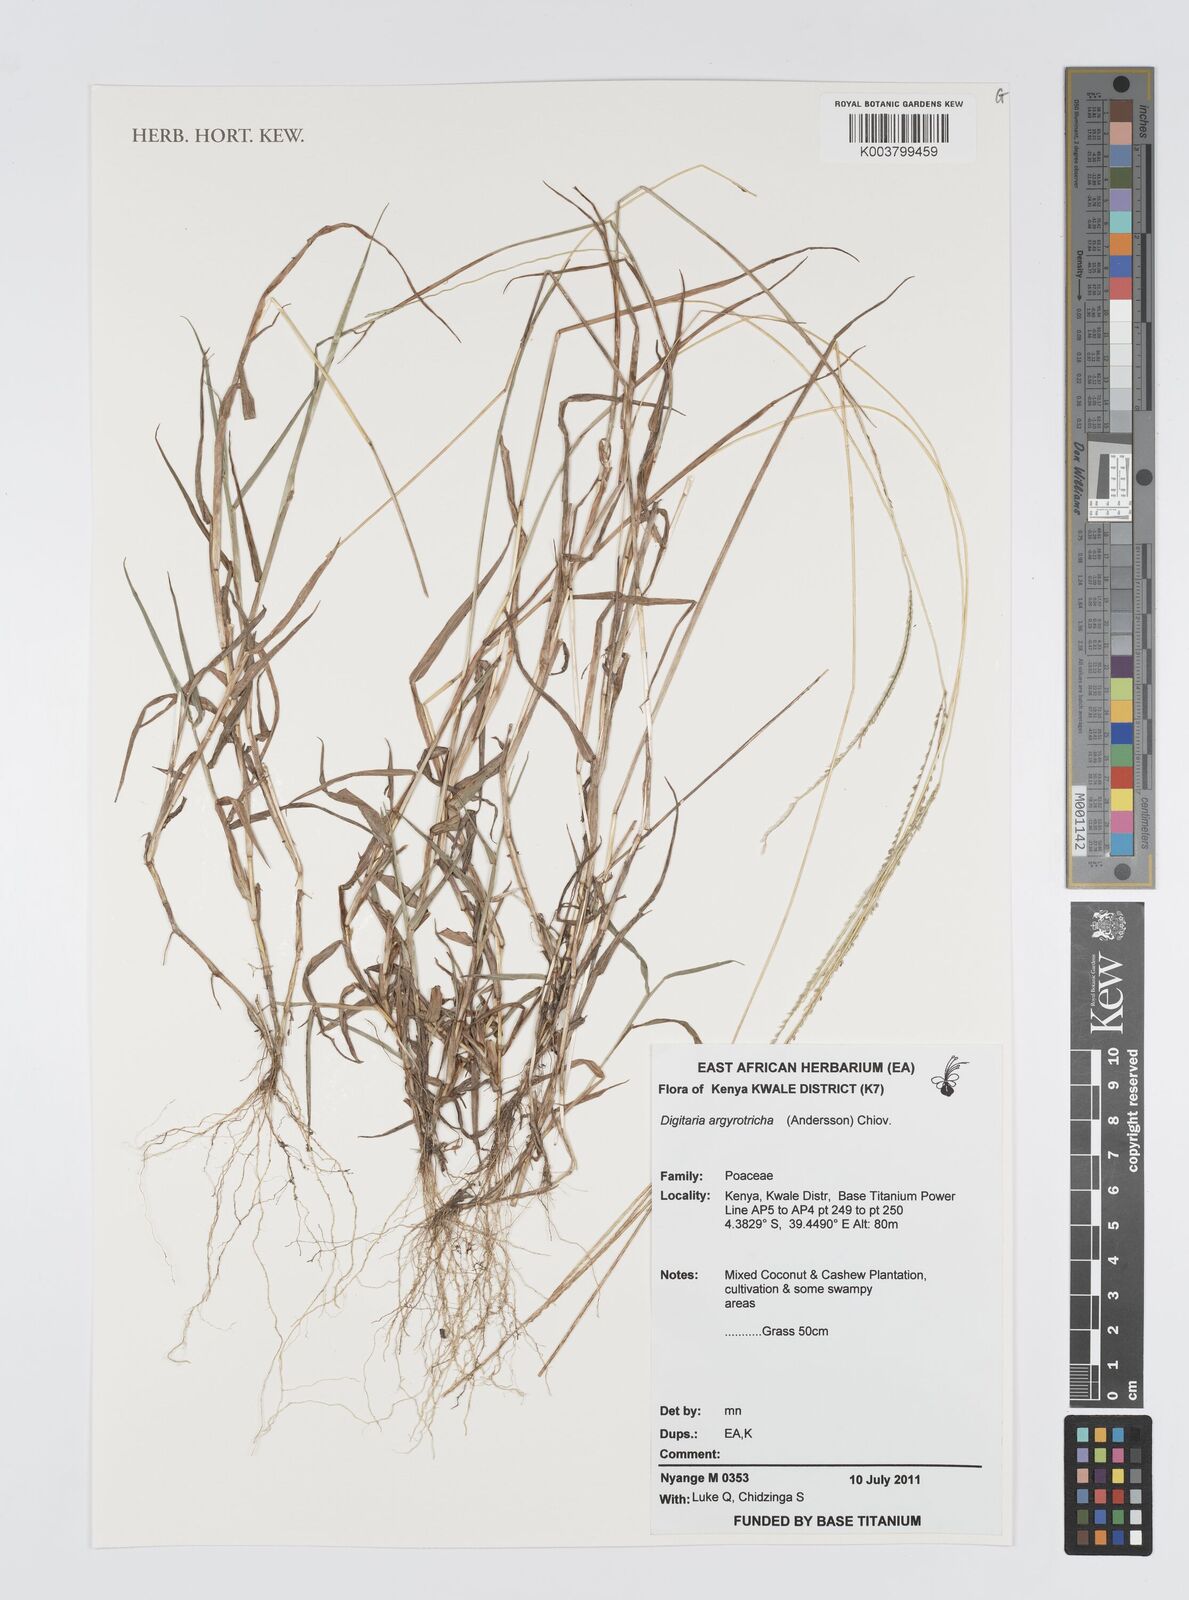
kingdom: Plantae
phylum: Tracheophyta
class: Liliopsida
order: Poales
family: Poaceae
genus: Digitaria
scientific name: Digitaria argyrotricha
